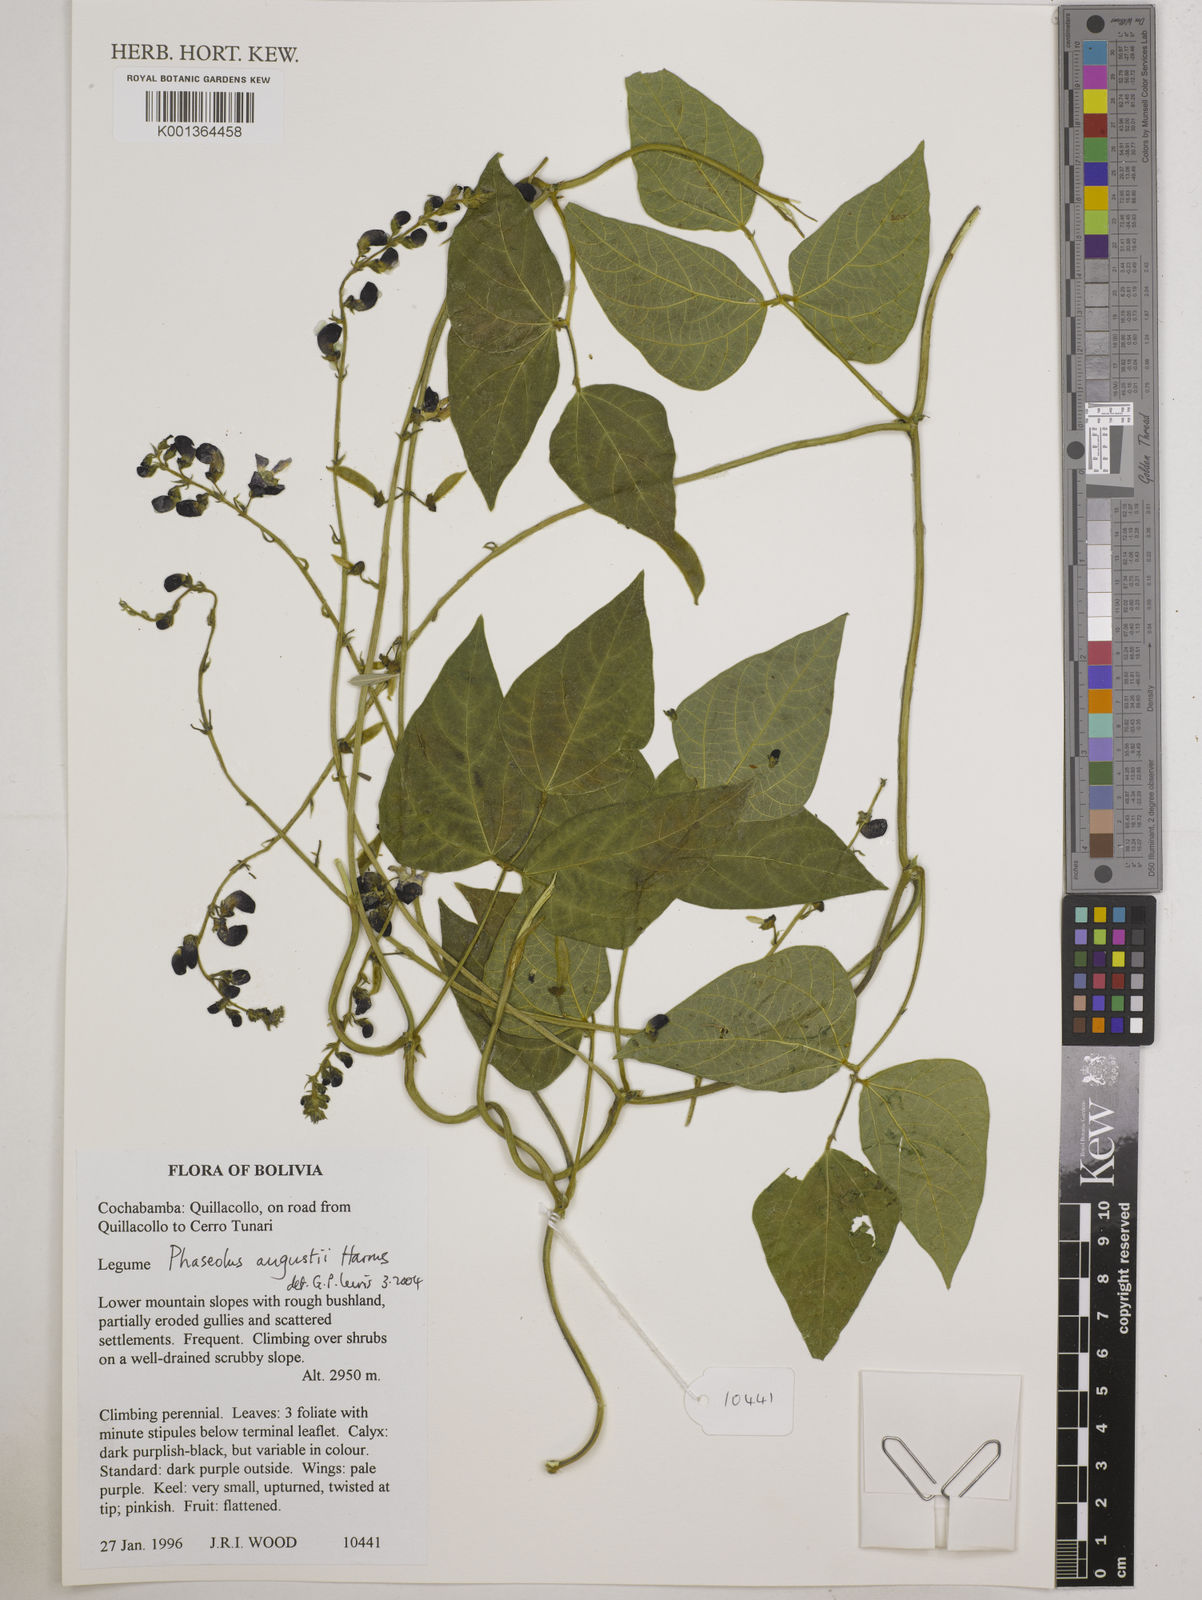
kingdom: Plantae
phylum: Tracheophyta
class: Magnoliopsida
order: Fabales
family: Fabaceae
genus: Phaseolus
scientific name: Phaseolus augusti
